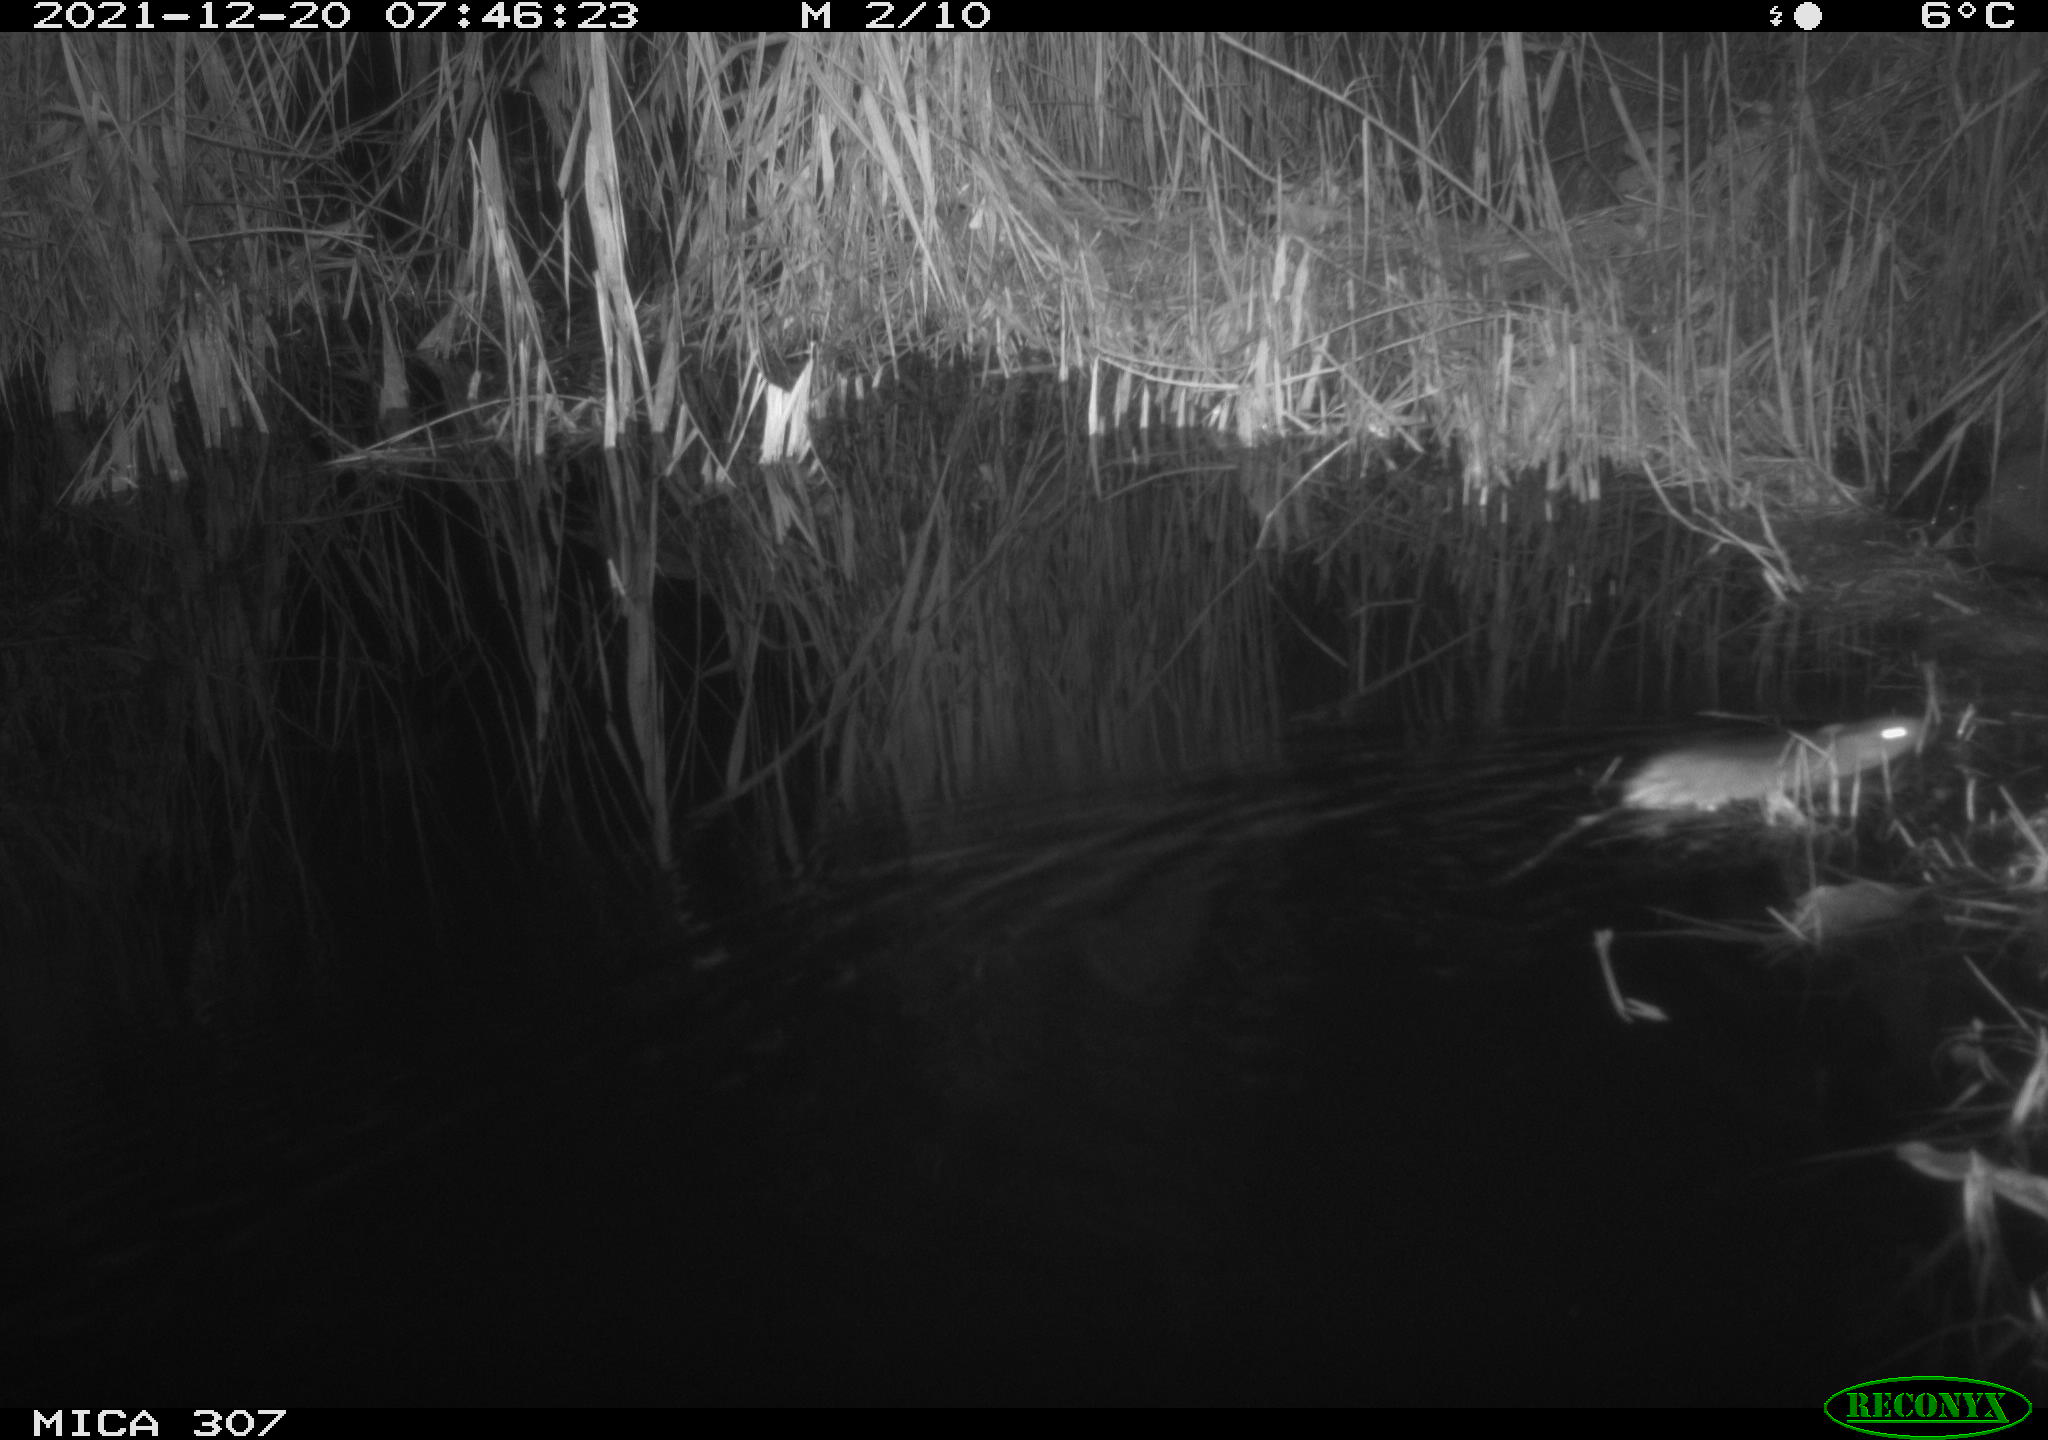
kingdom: Animalia
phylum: Chordata
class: Mammalia
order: Rodentia
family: Muridae
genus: Rattus
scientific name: Rattus norvegicus
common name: Brown rat
